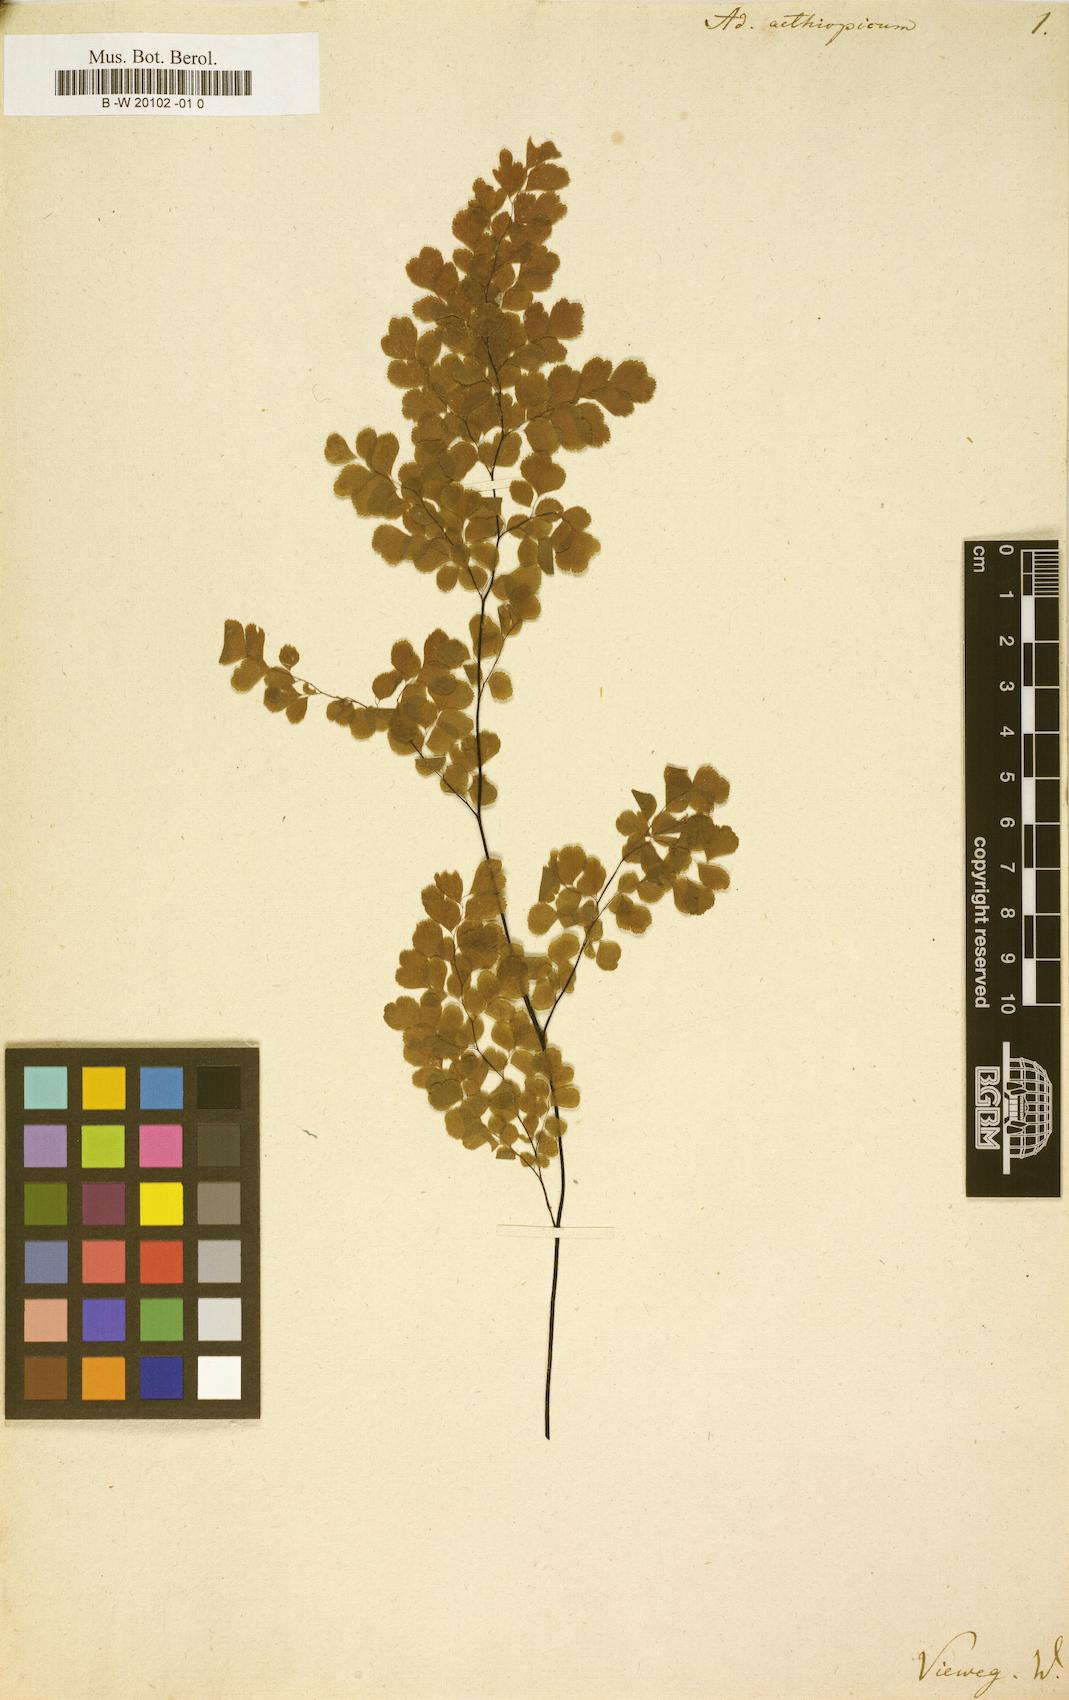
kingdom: Plantae
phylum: Tracheophyta
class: Polypodiopsida
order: Polypodiales
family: Pteridaceae
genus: Adiantum
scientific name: Adiantum aethiopicum
